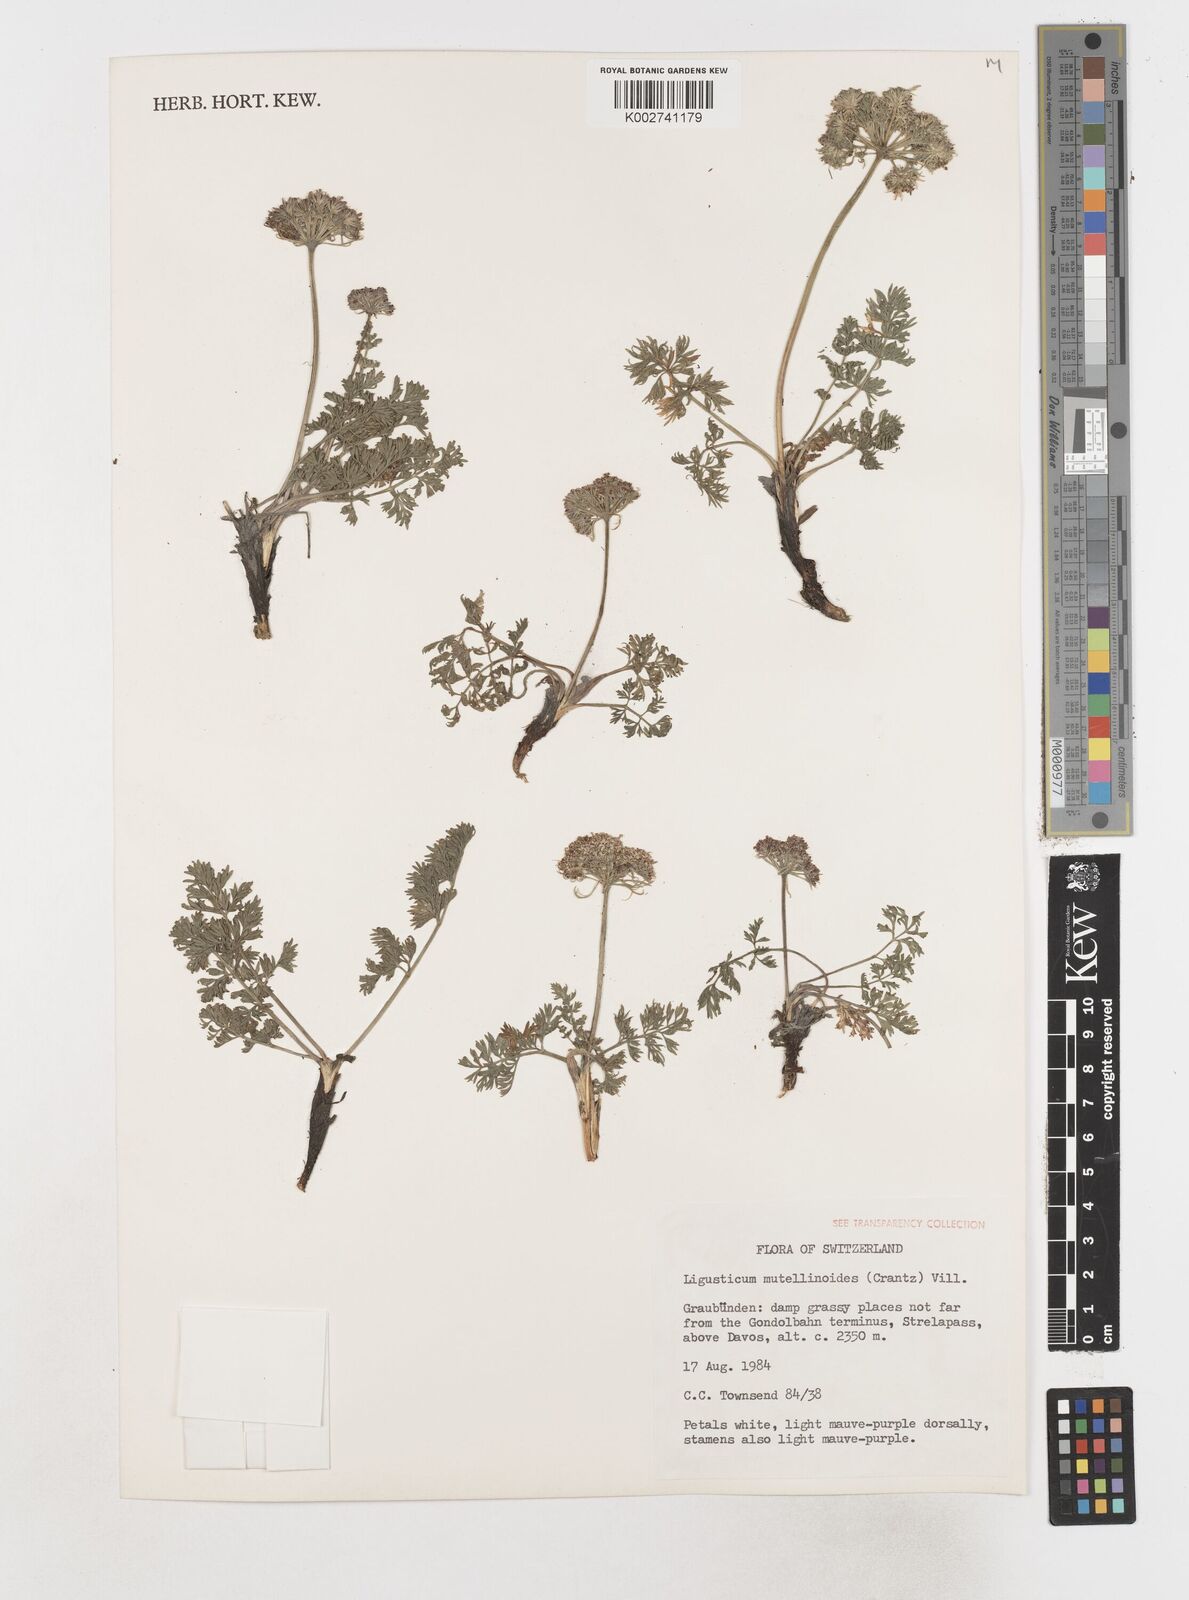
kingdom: Plantae
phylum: Tracheophyta
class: Magnoliopsida
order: Apiales
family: Apiaceae
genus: Pachypleurum
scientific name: Pachypleurum mutellinoides
